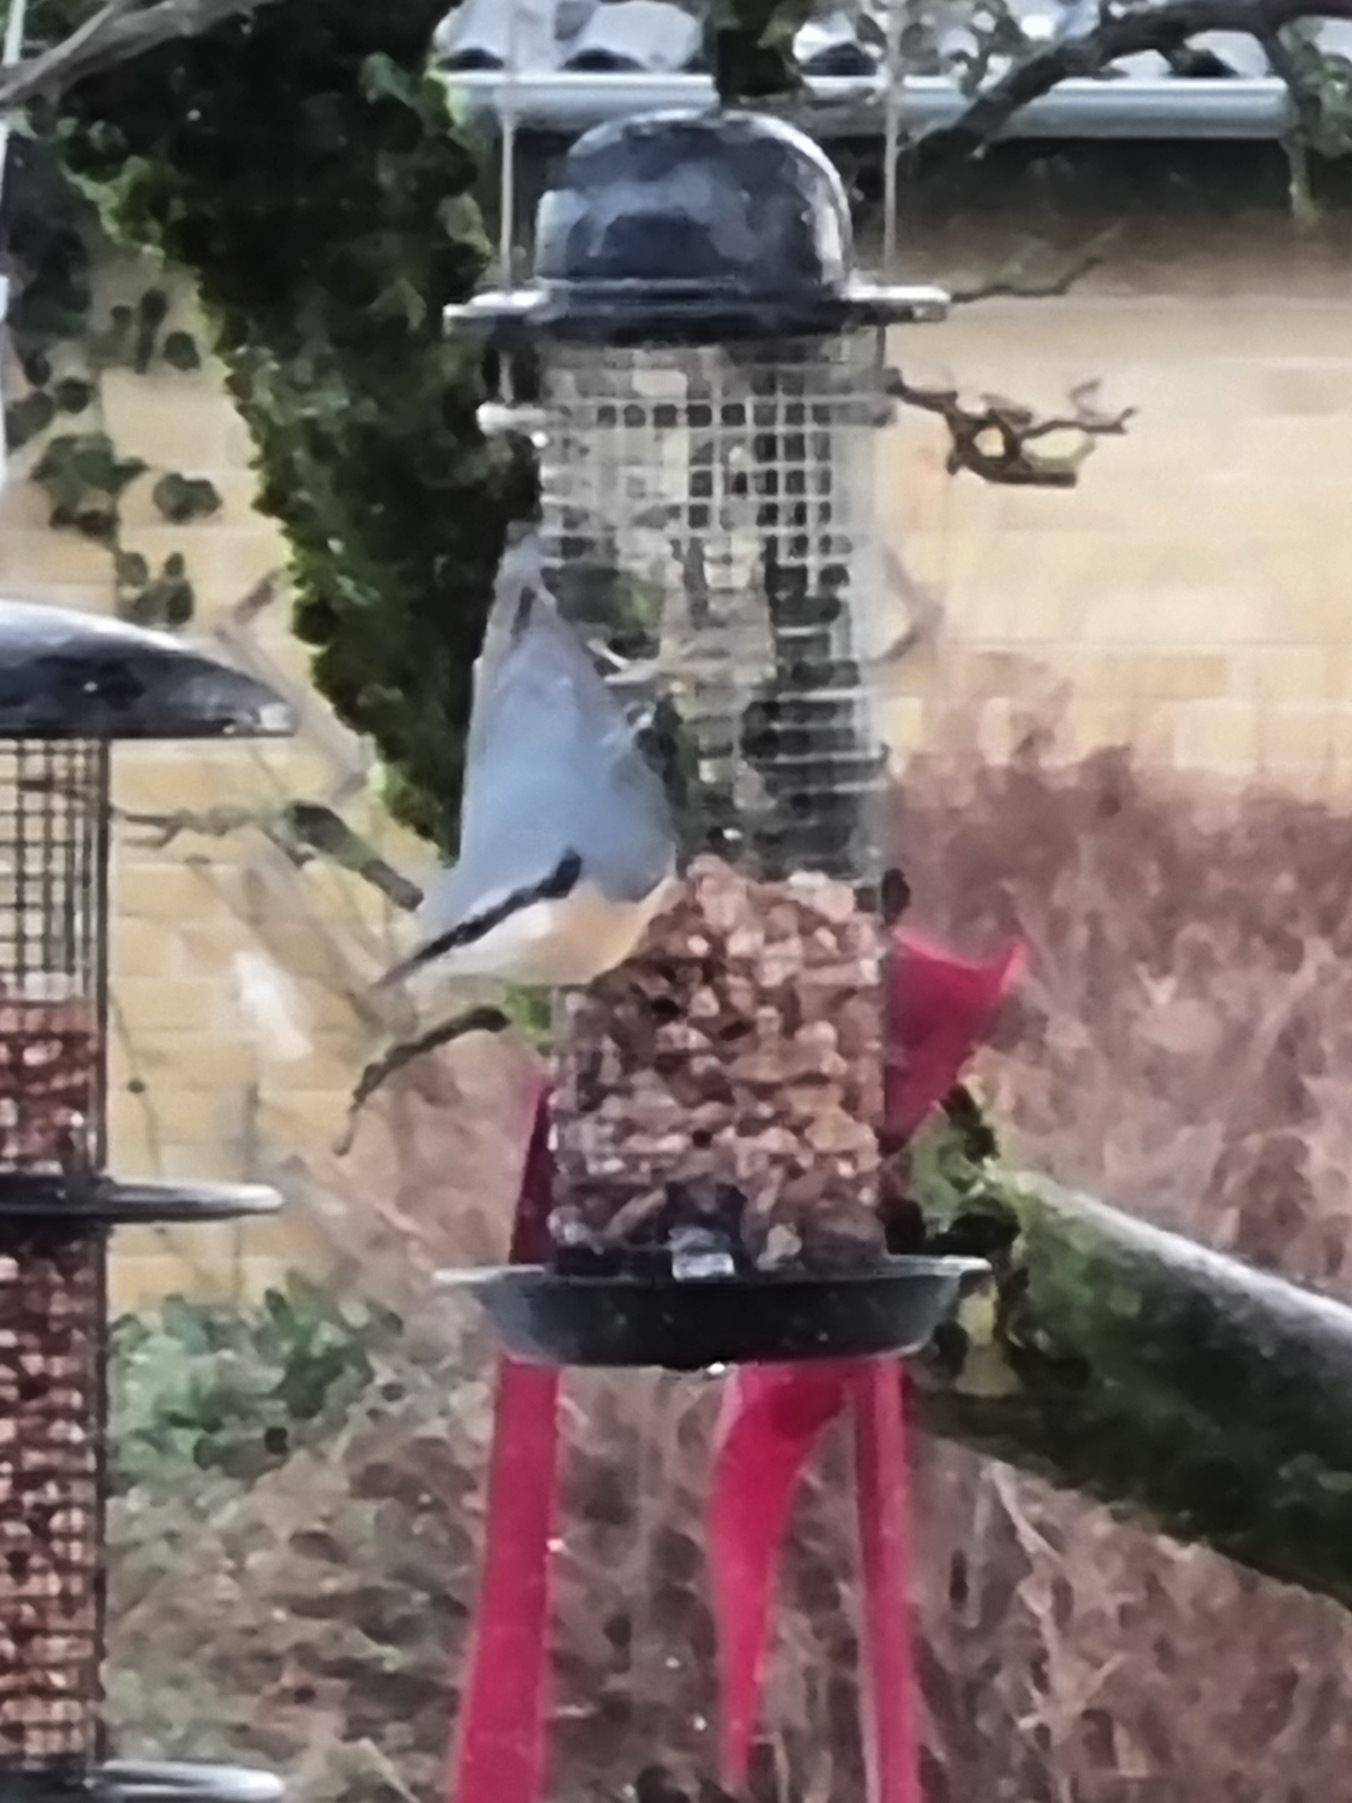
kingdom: Animalia
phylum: Chordata
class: Aves
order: Passeriformes
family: Sittidae
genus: Sitta
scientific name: Sitta europaea
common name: Spætmejse
